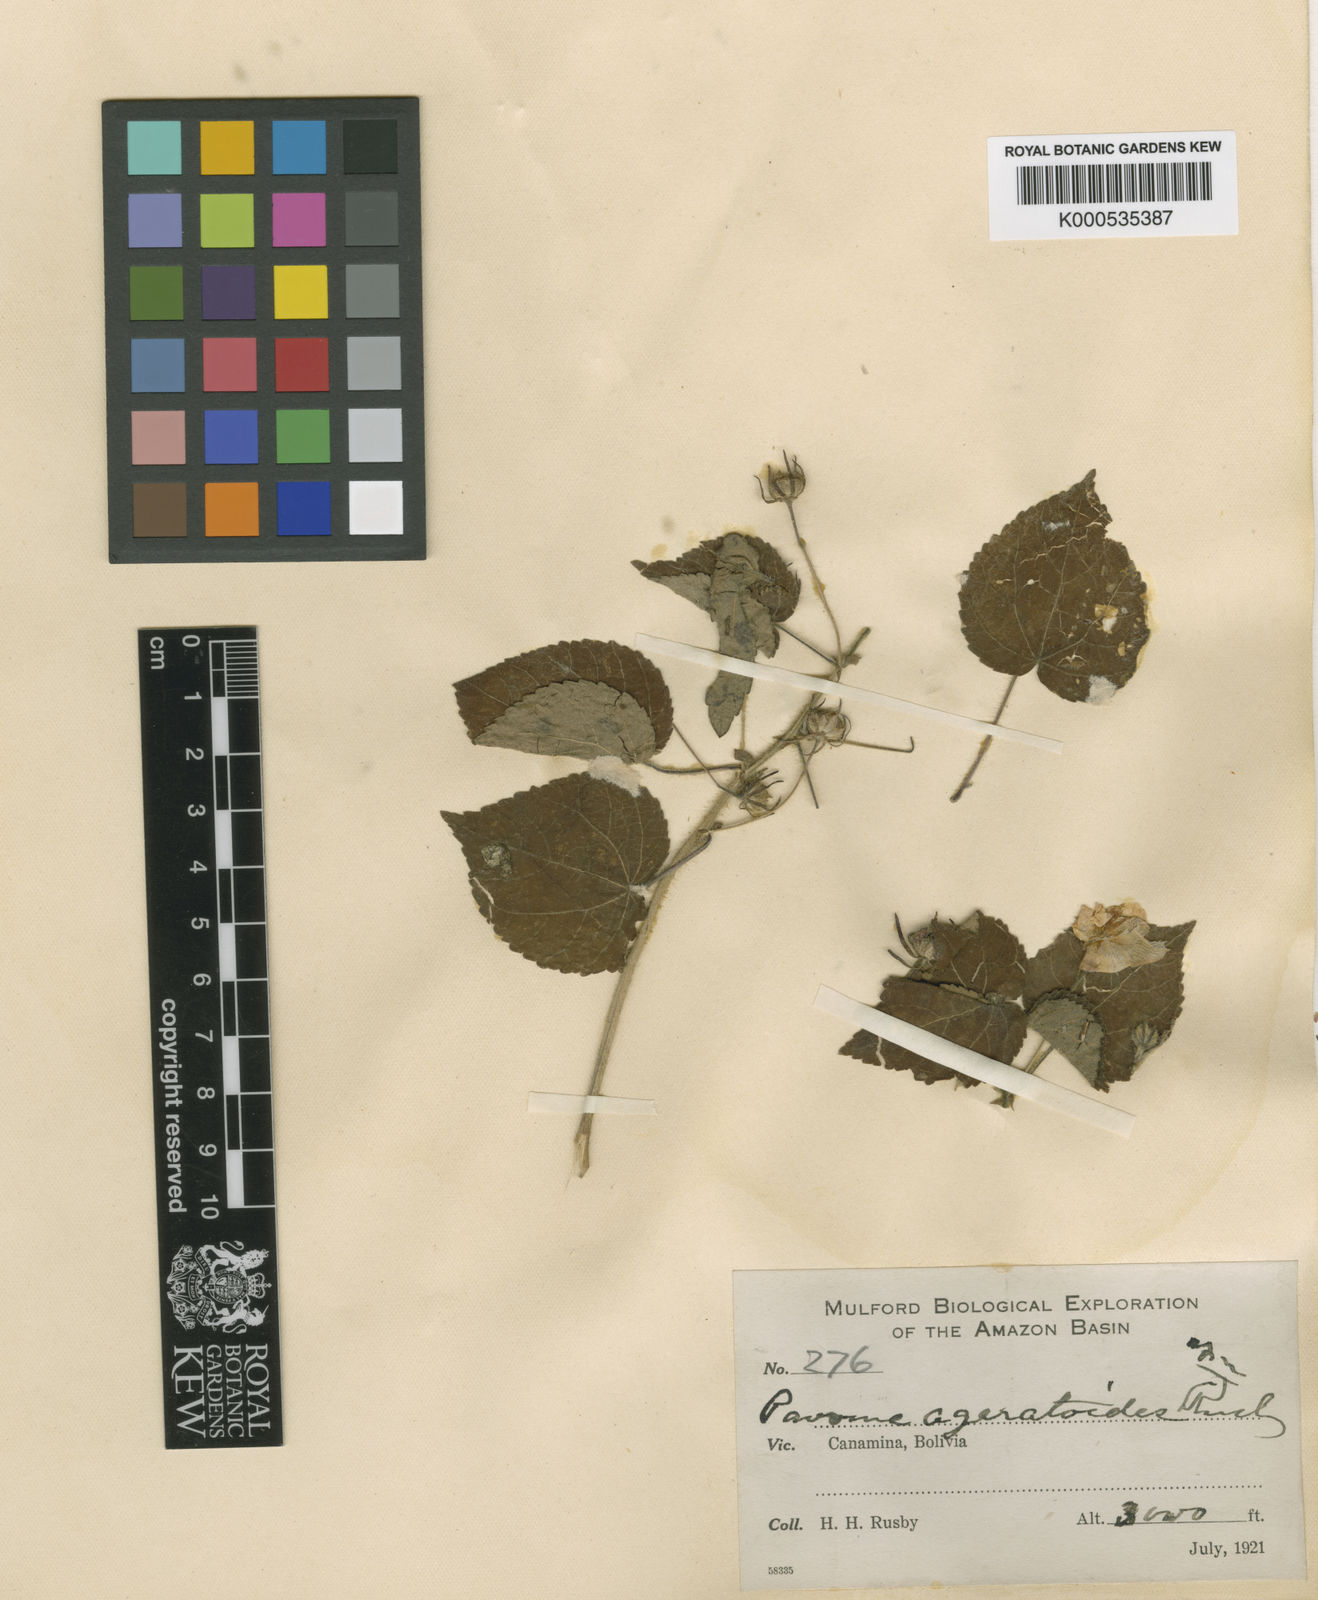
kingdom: Plantae
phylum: Tracheophyta
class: Magnoliopsida
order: Malvales
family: Malvaceae
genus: Pavonia
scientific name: Pavonia paniculata
